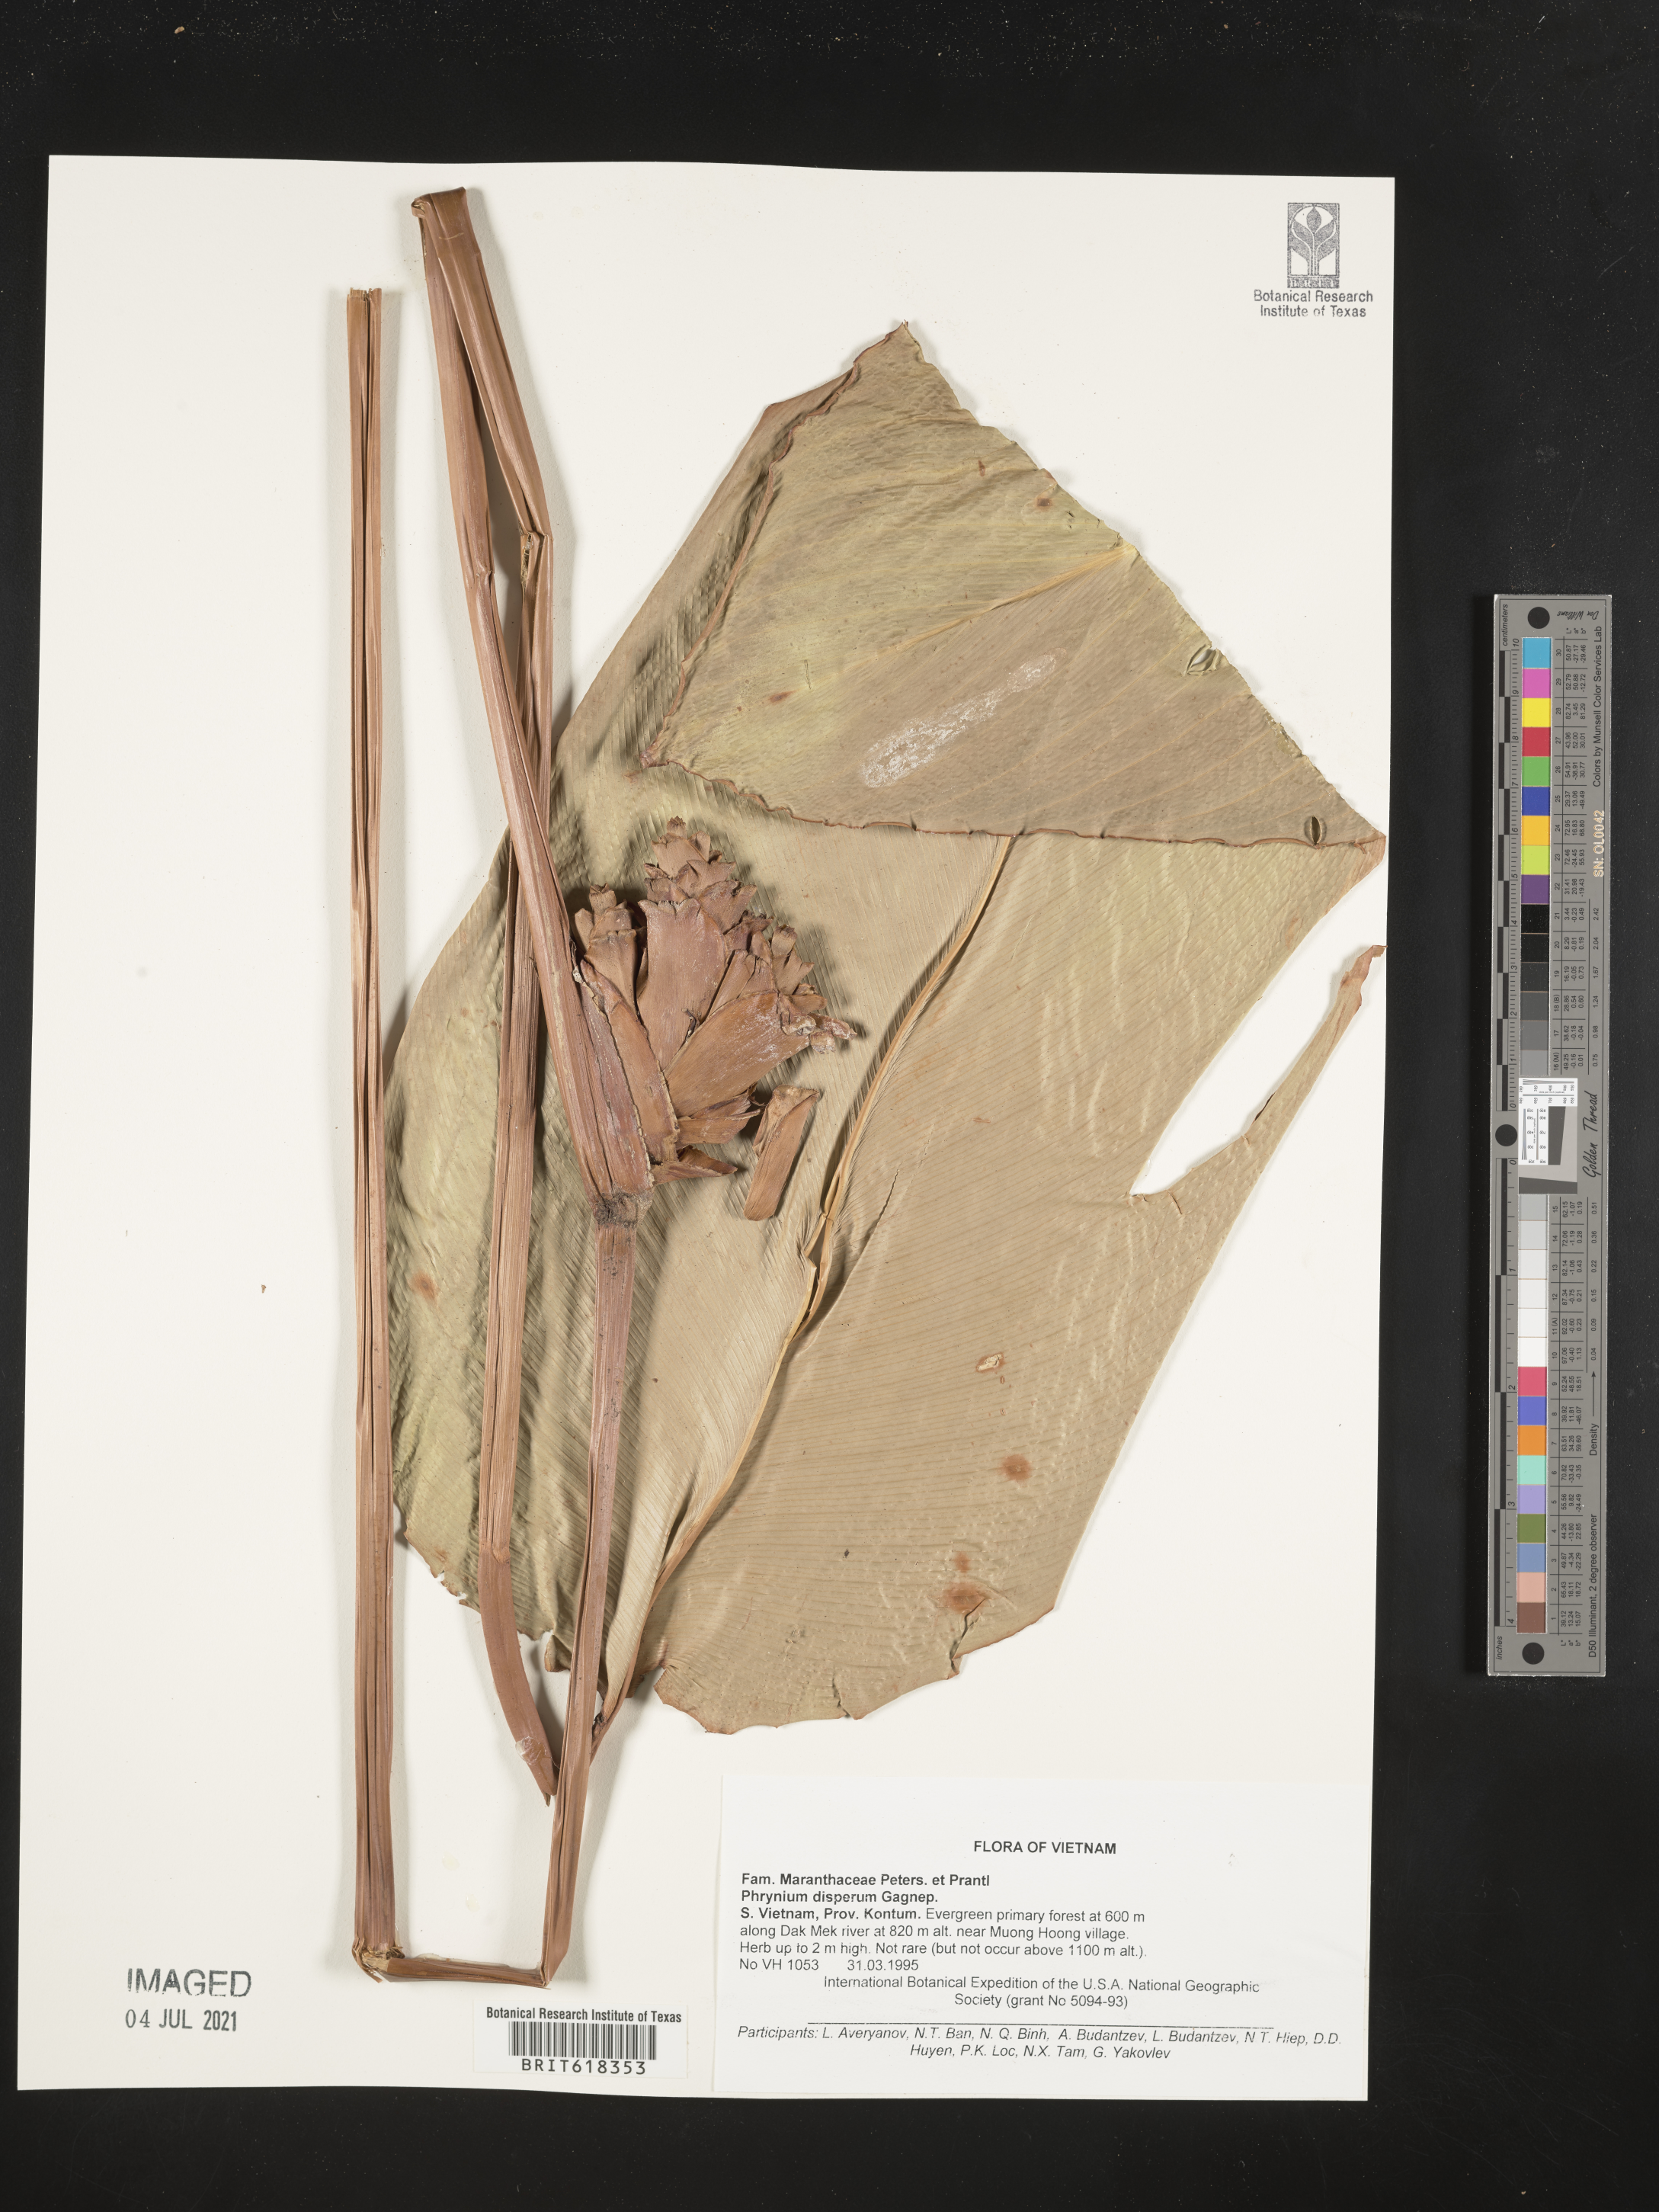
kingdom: Plantae
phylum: Tracheophyta
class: Liliopsida
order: Zingiberales
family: Marantaceae
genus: Phrynium
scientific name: Phrynium imbricatum
